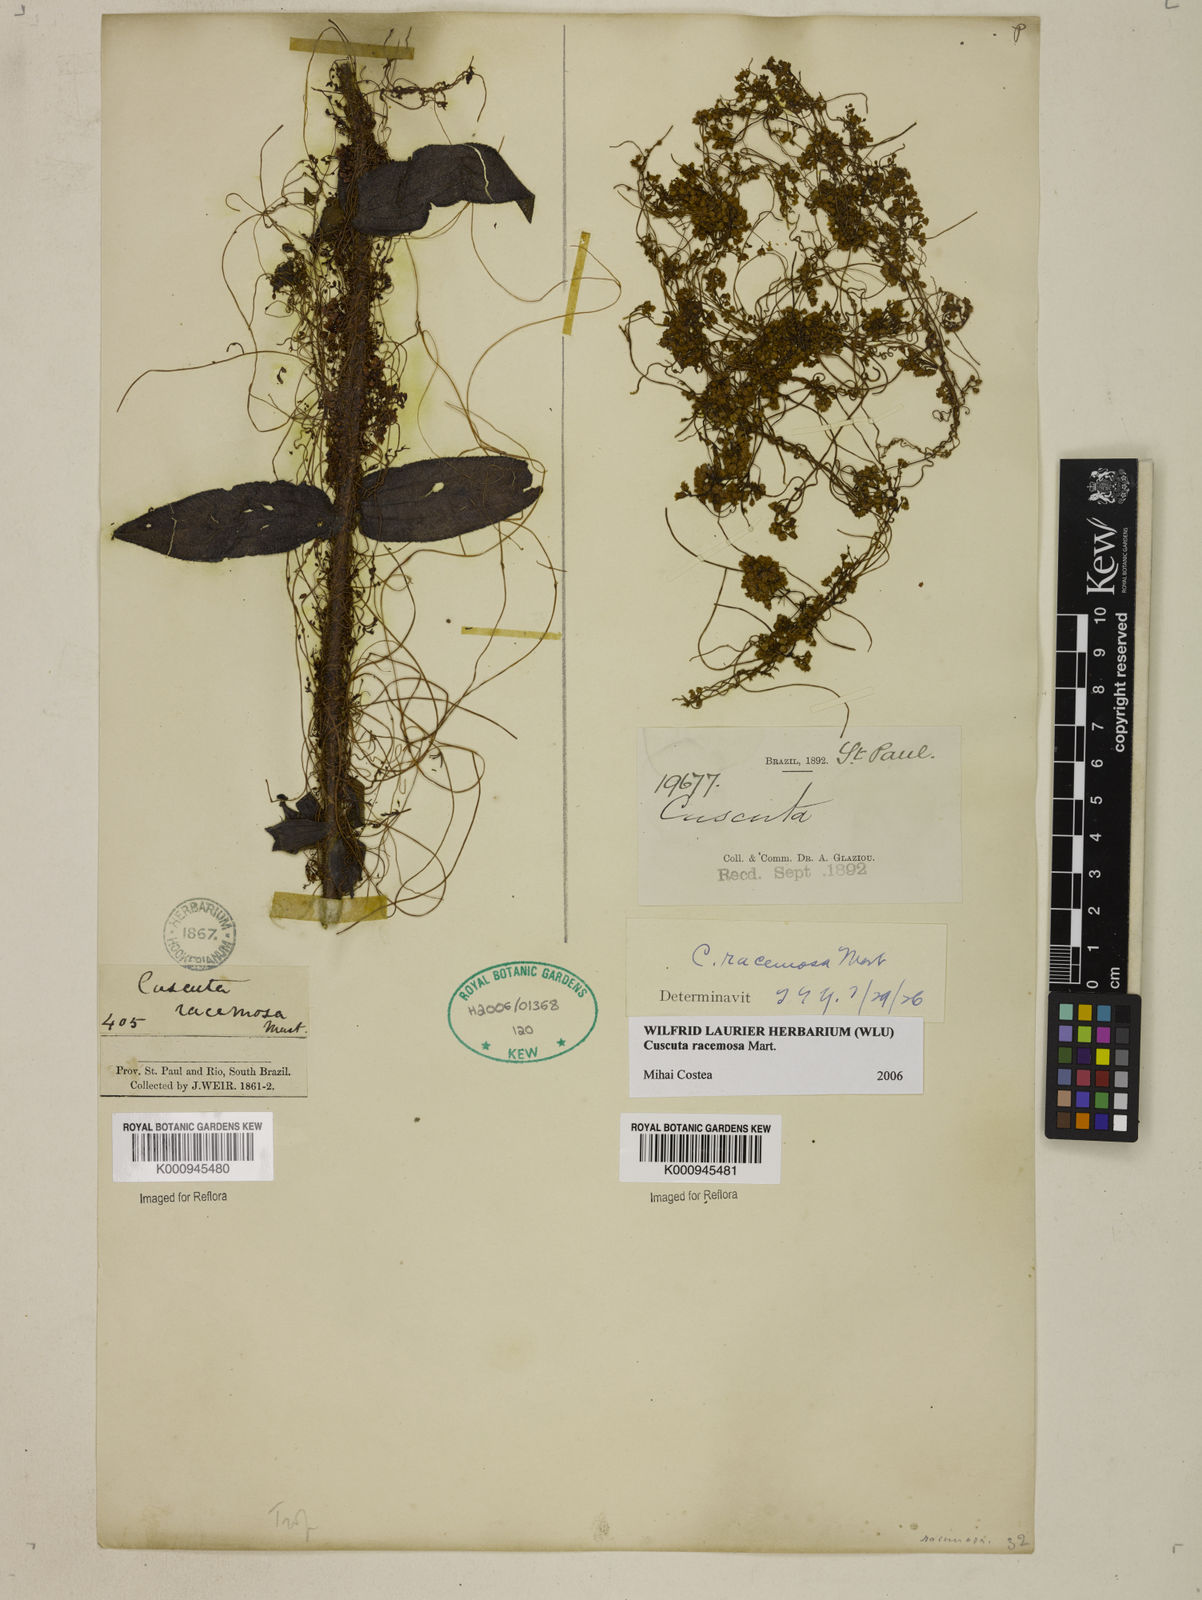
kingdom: Plantae
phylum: Tracheophyta
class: Magnoliopsida
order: Solanales
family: Convolvulaceae
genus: Cuscuta
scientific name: Cuscuta racemosa
